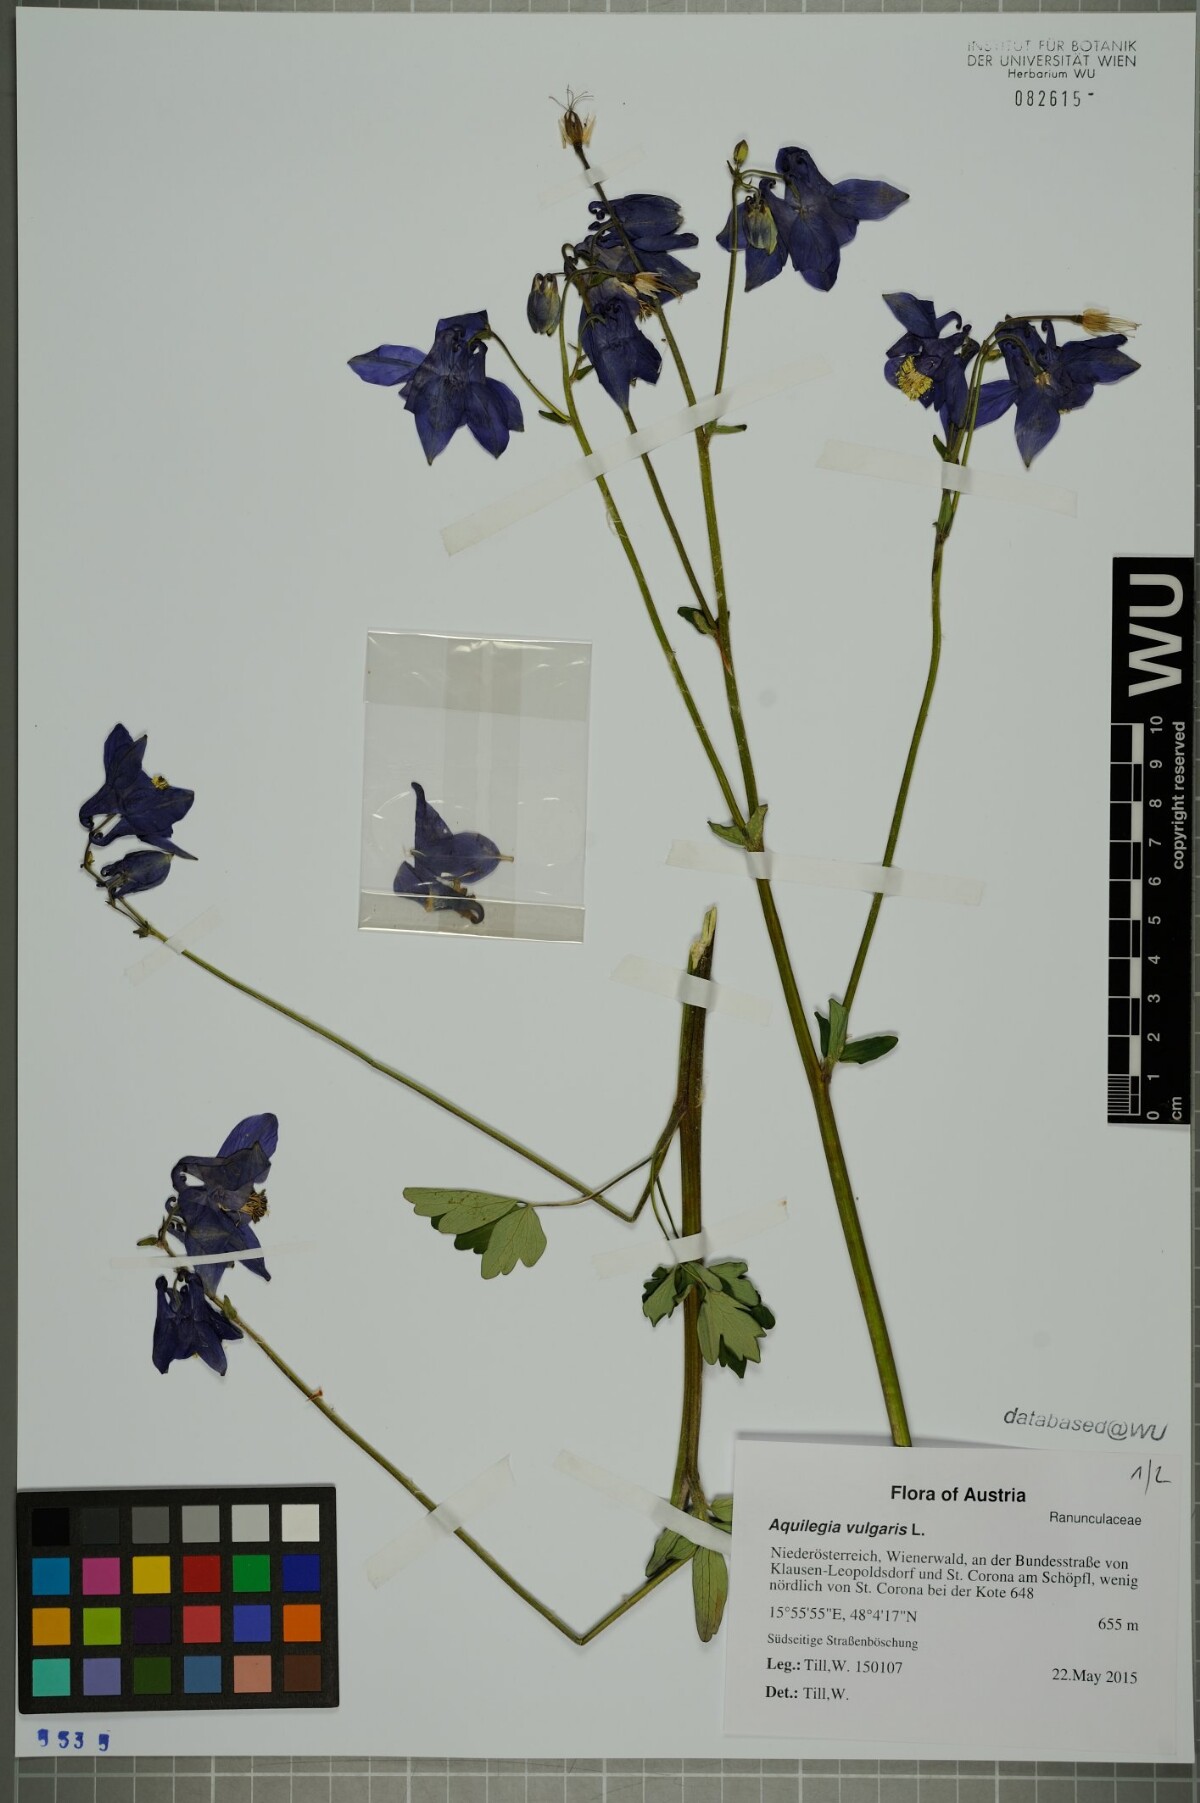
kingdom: Plantae
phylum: Tracheophyta
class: Magnoliopsida
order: Ranunculales
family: Ranunculaceae
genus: Aquilegia
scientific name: Aquilegia vulgaris
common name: Columbine
